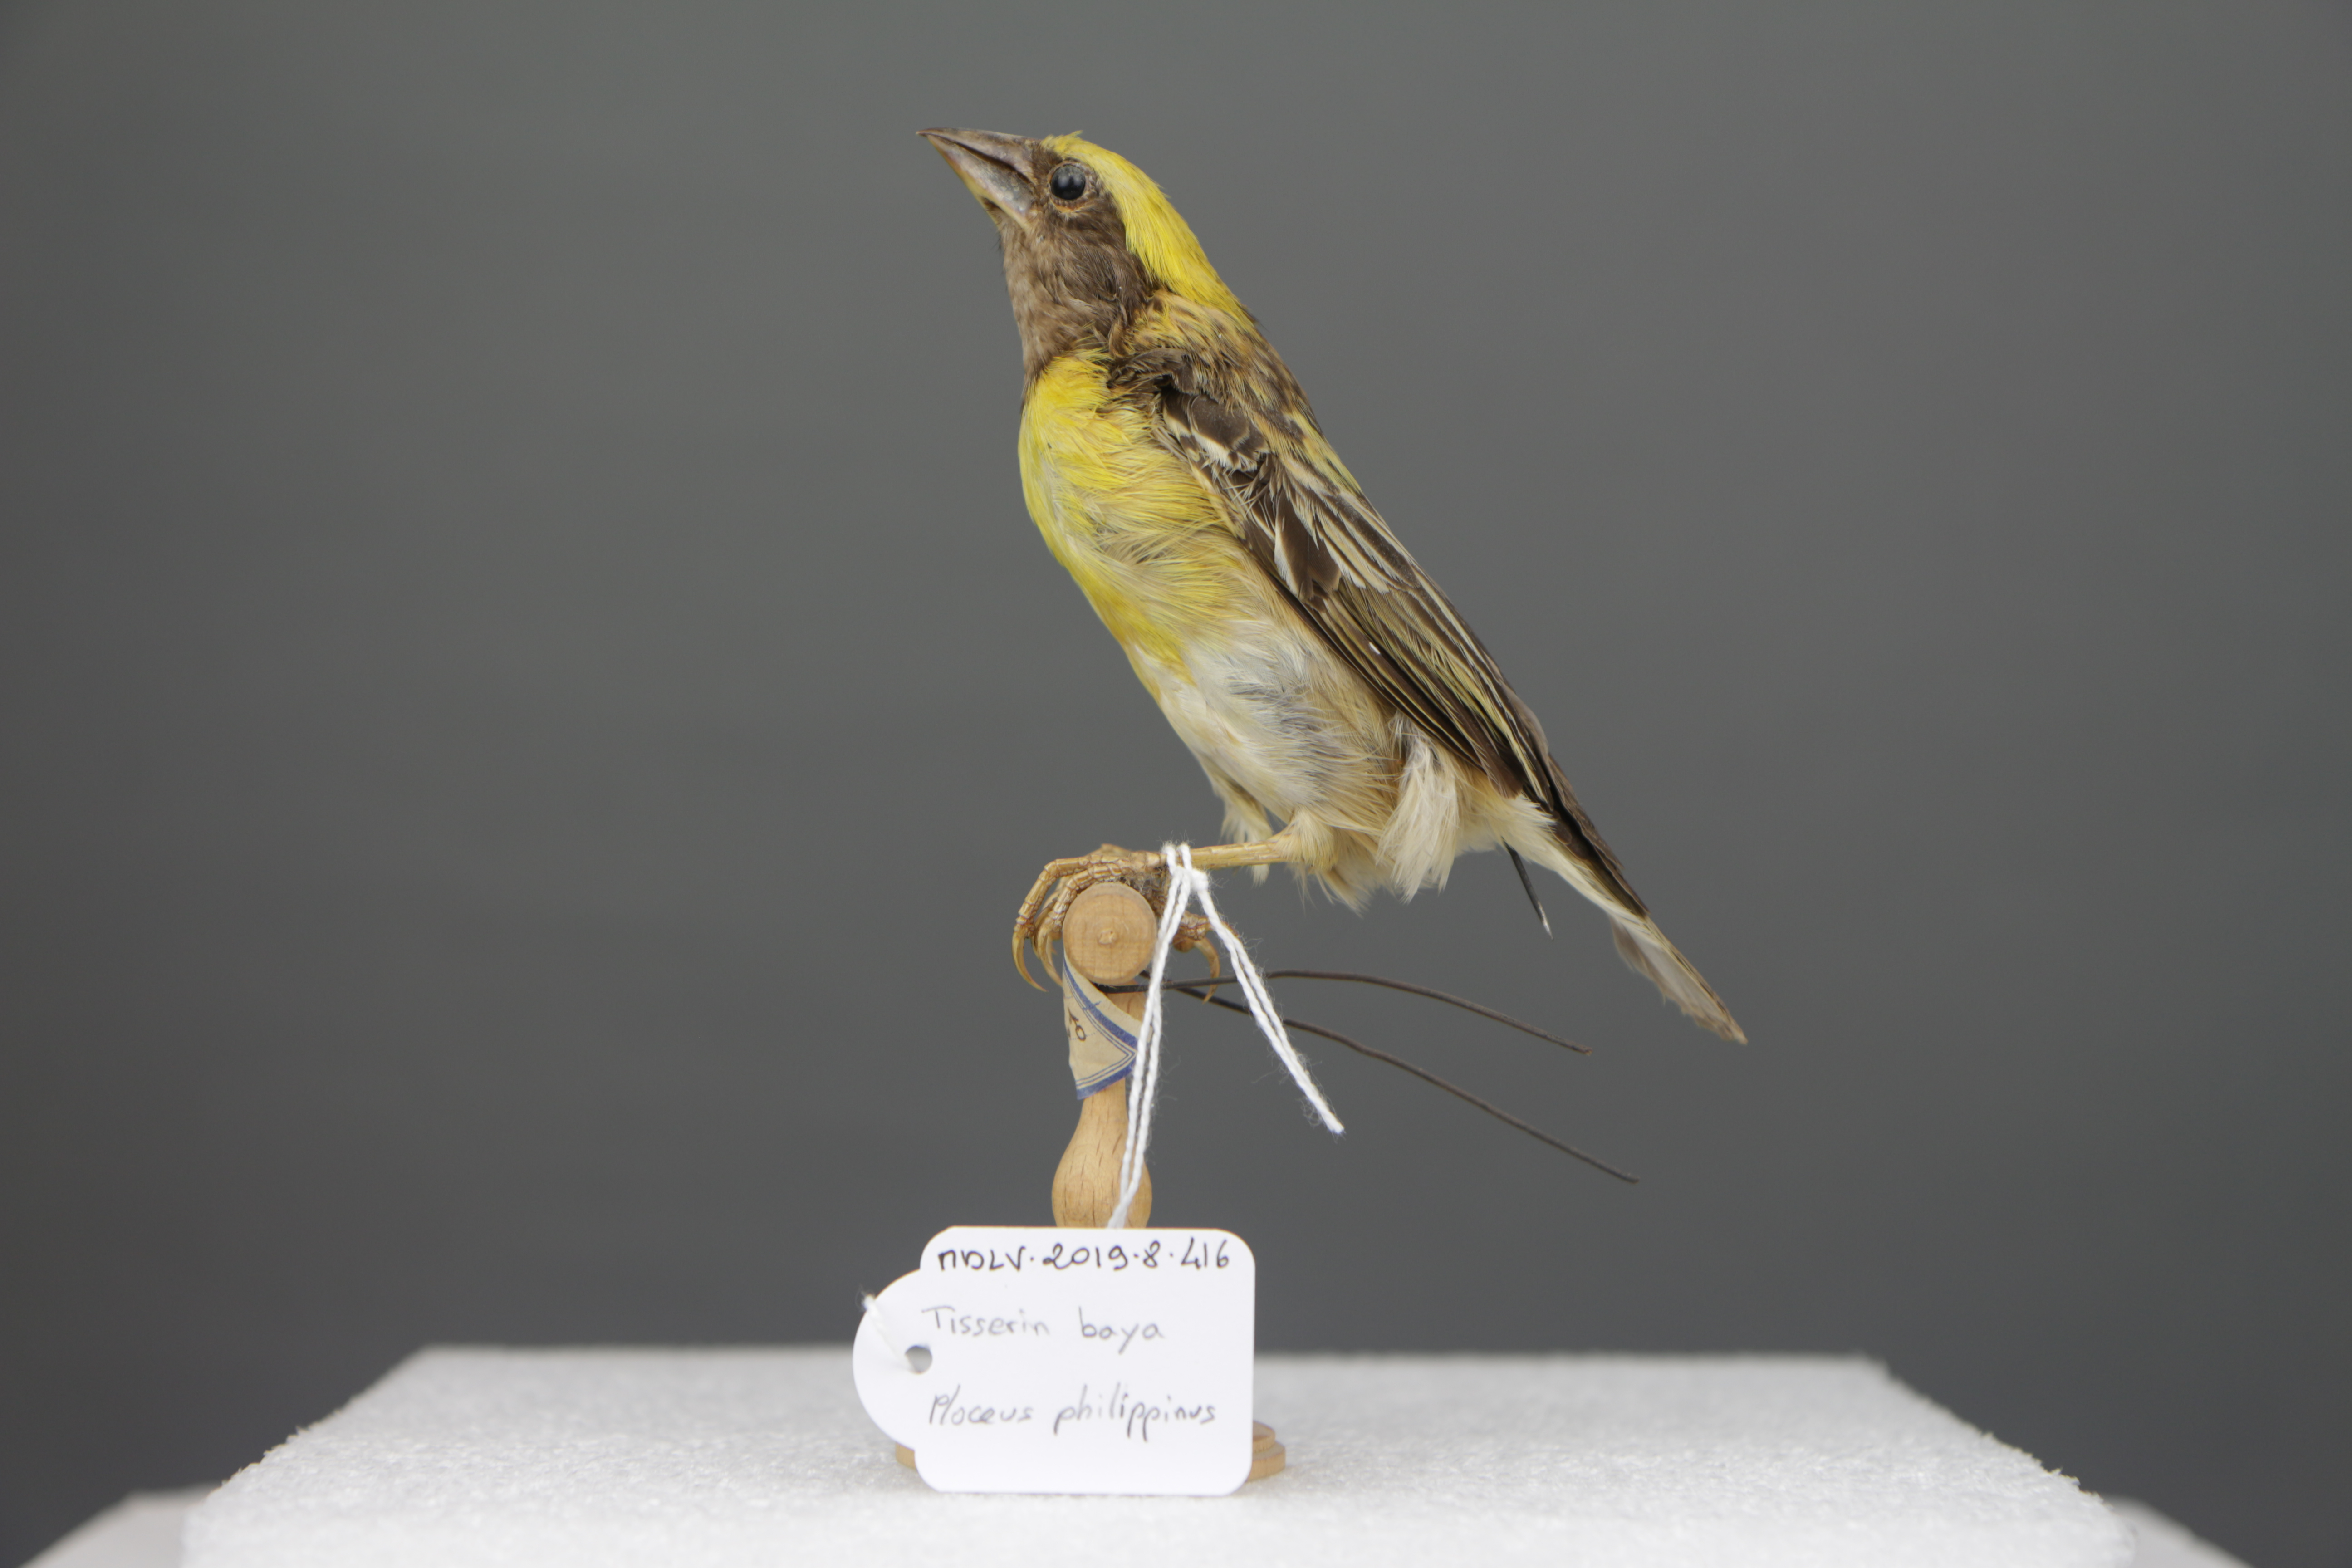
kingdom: Animalia
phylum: Chordata
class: Aves
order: Passeriformes
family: Ploceidae
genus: Ploceus
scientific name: Ploceus philippinus
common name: Baya weaver
